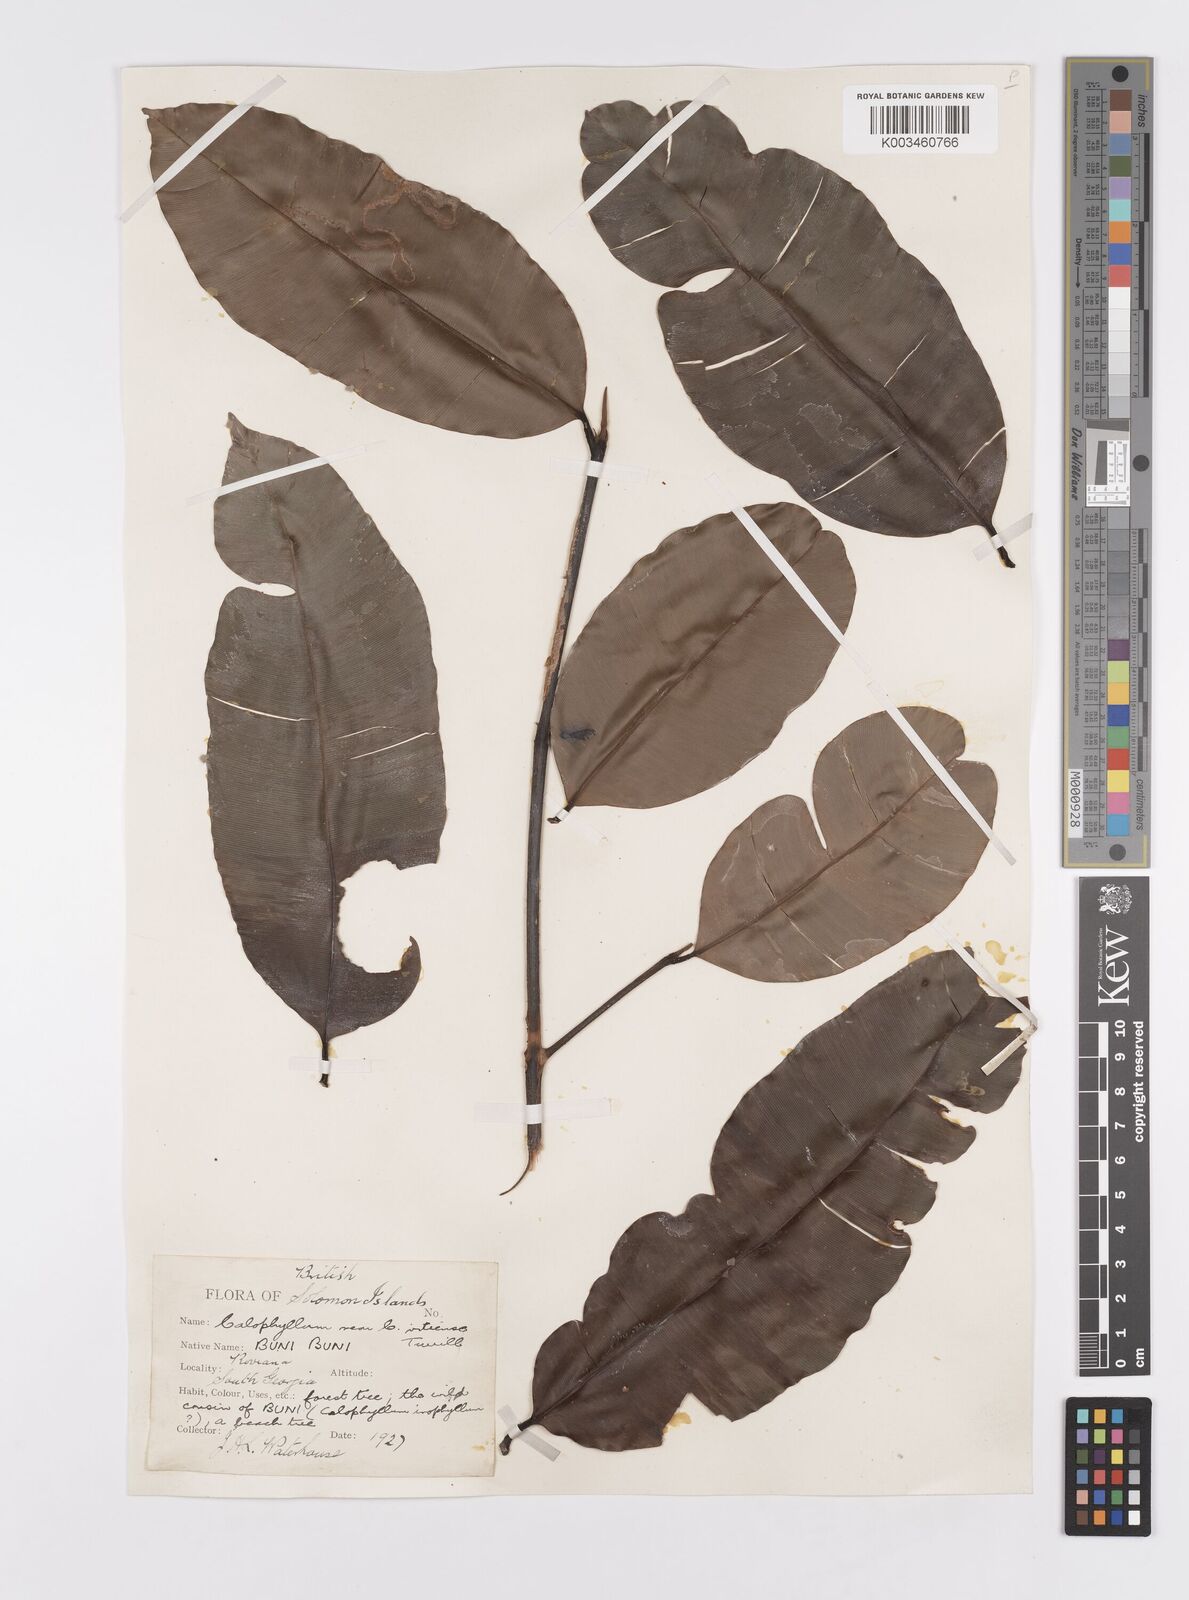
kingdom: Plantae
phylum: Tracheophyta
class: Magnoliopsida
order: Malpighiales
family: Calophyllaceae
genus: Calophyllum
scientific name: Calophyllum vitiense
